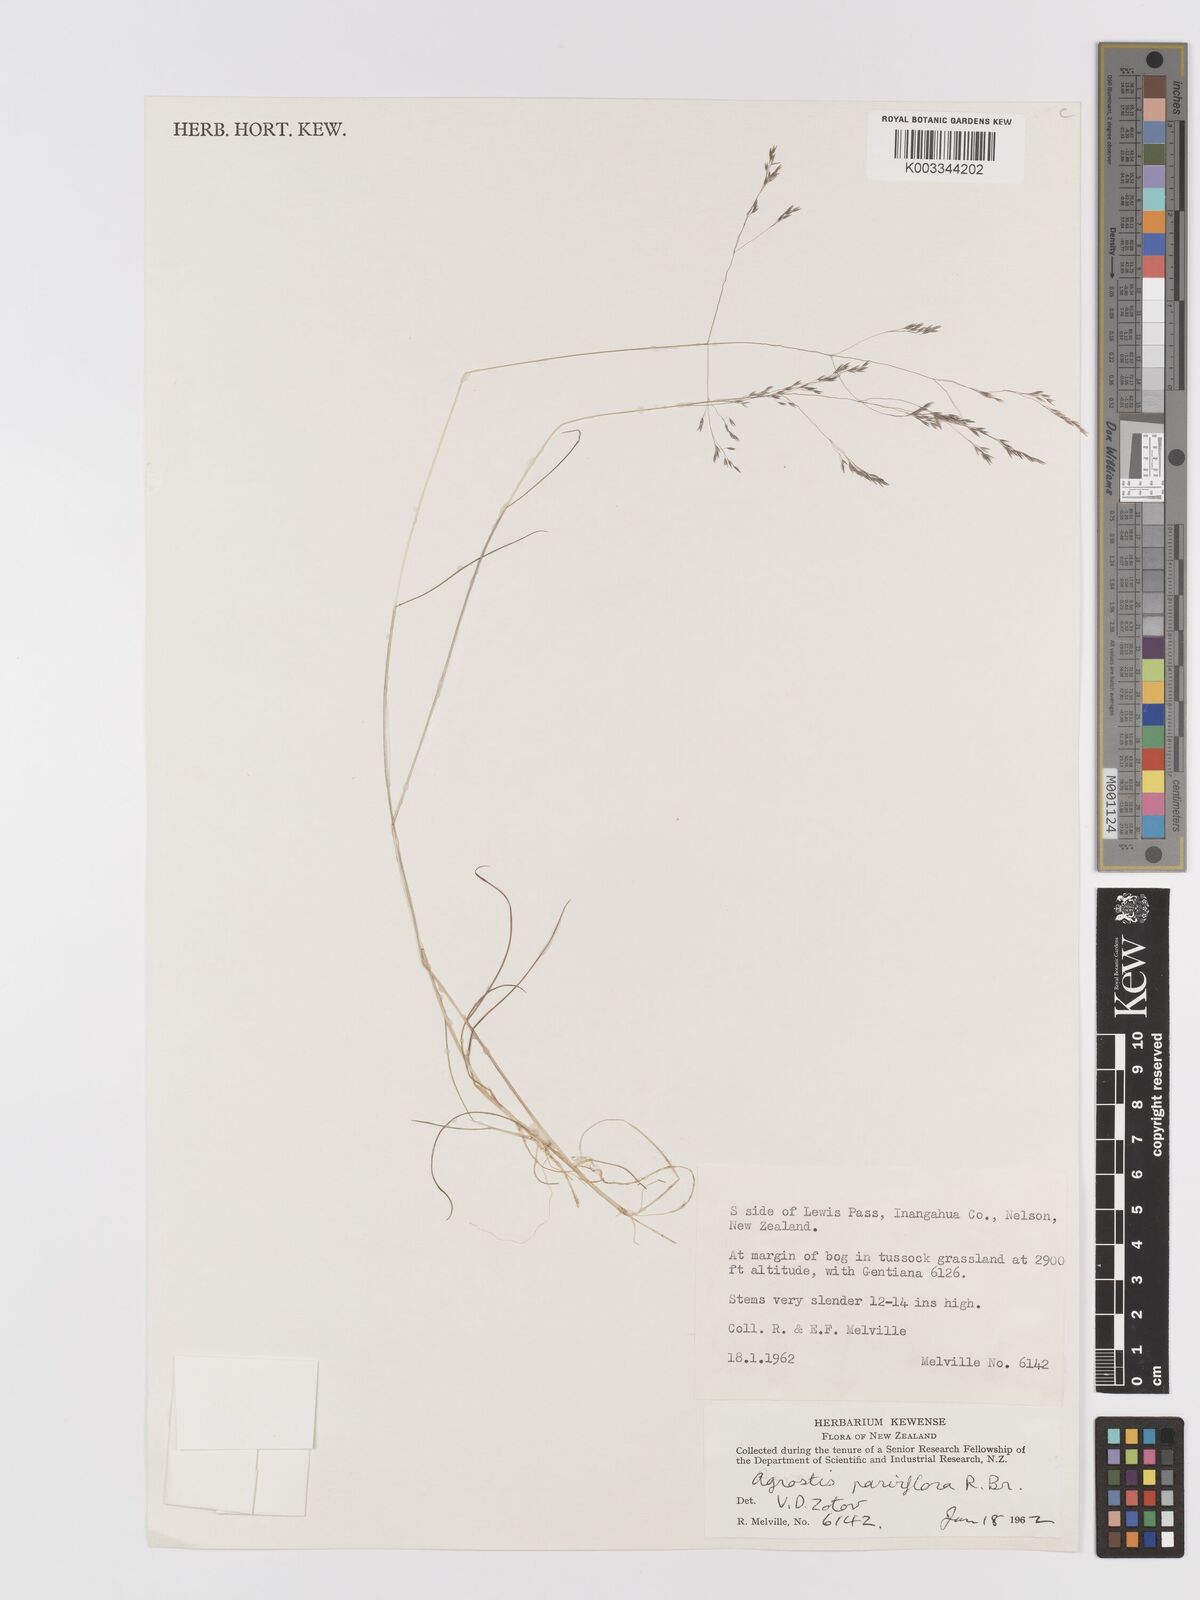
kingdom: Plantae
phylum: Tracheophyta
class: Liliopsida
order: Poales
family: Poaceae
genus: Agrostis
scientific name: Agrostis parviflora
